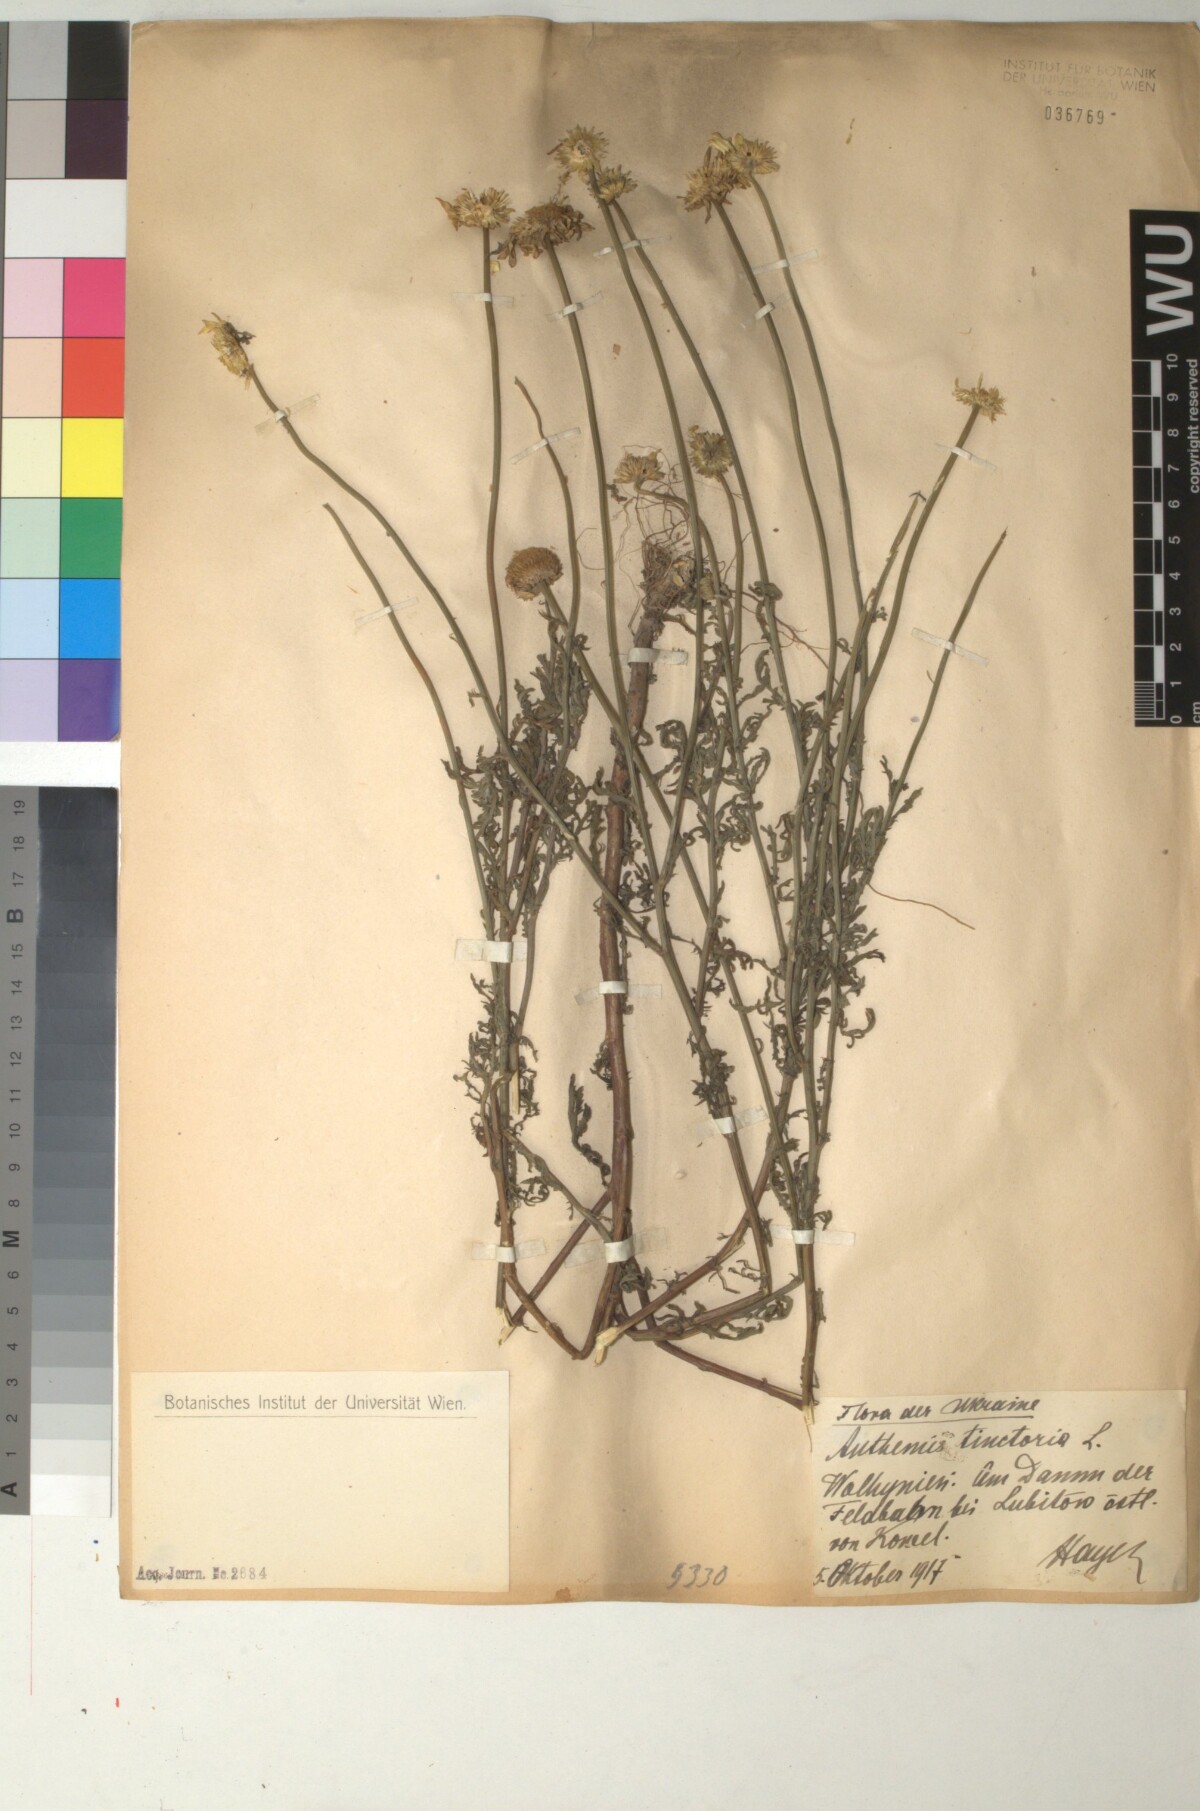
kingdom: Plantae
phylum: Tracheophyta
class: Magnoliopsida
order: Asterales
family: Asteraceae
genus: Cota
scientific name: Cota tinctoria
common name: Golden chamomile
